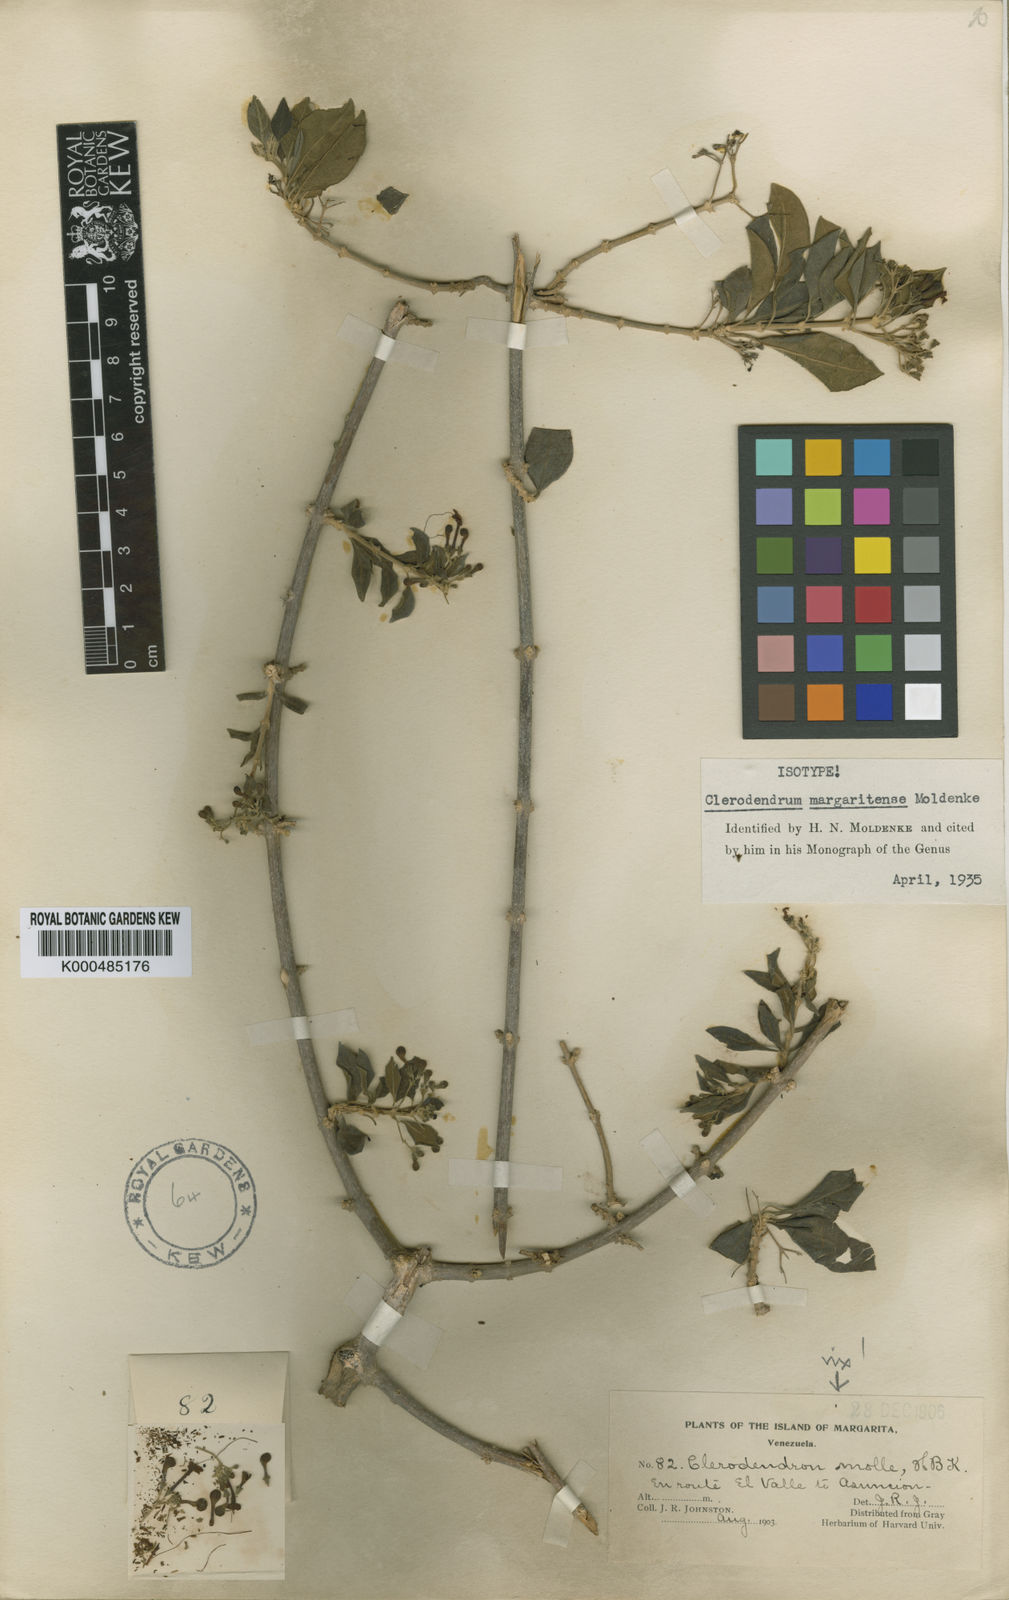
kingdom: Plantae
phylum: Tracheophyta
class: Magnoliopsida
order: Lamiales
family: Lamiaceae
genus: Clerodendrum
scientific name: Clerodendrum margaritense
